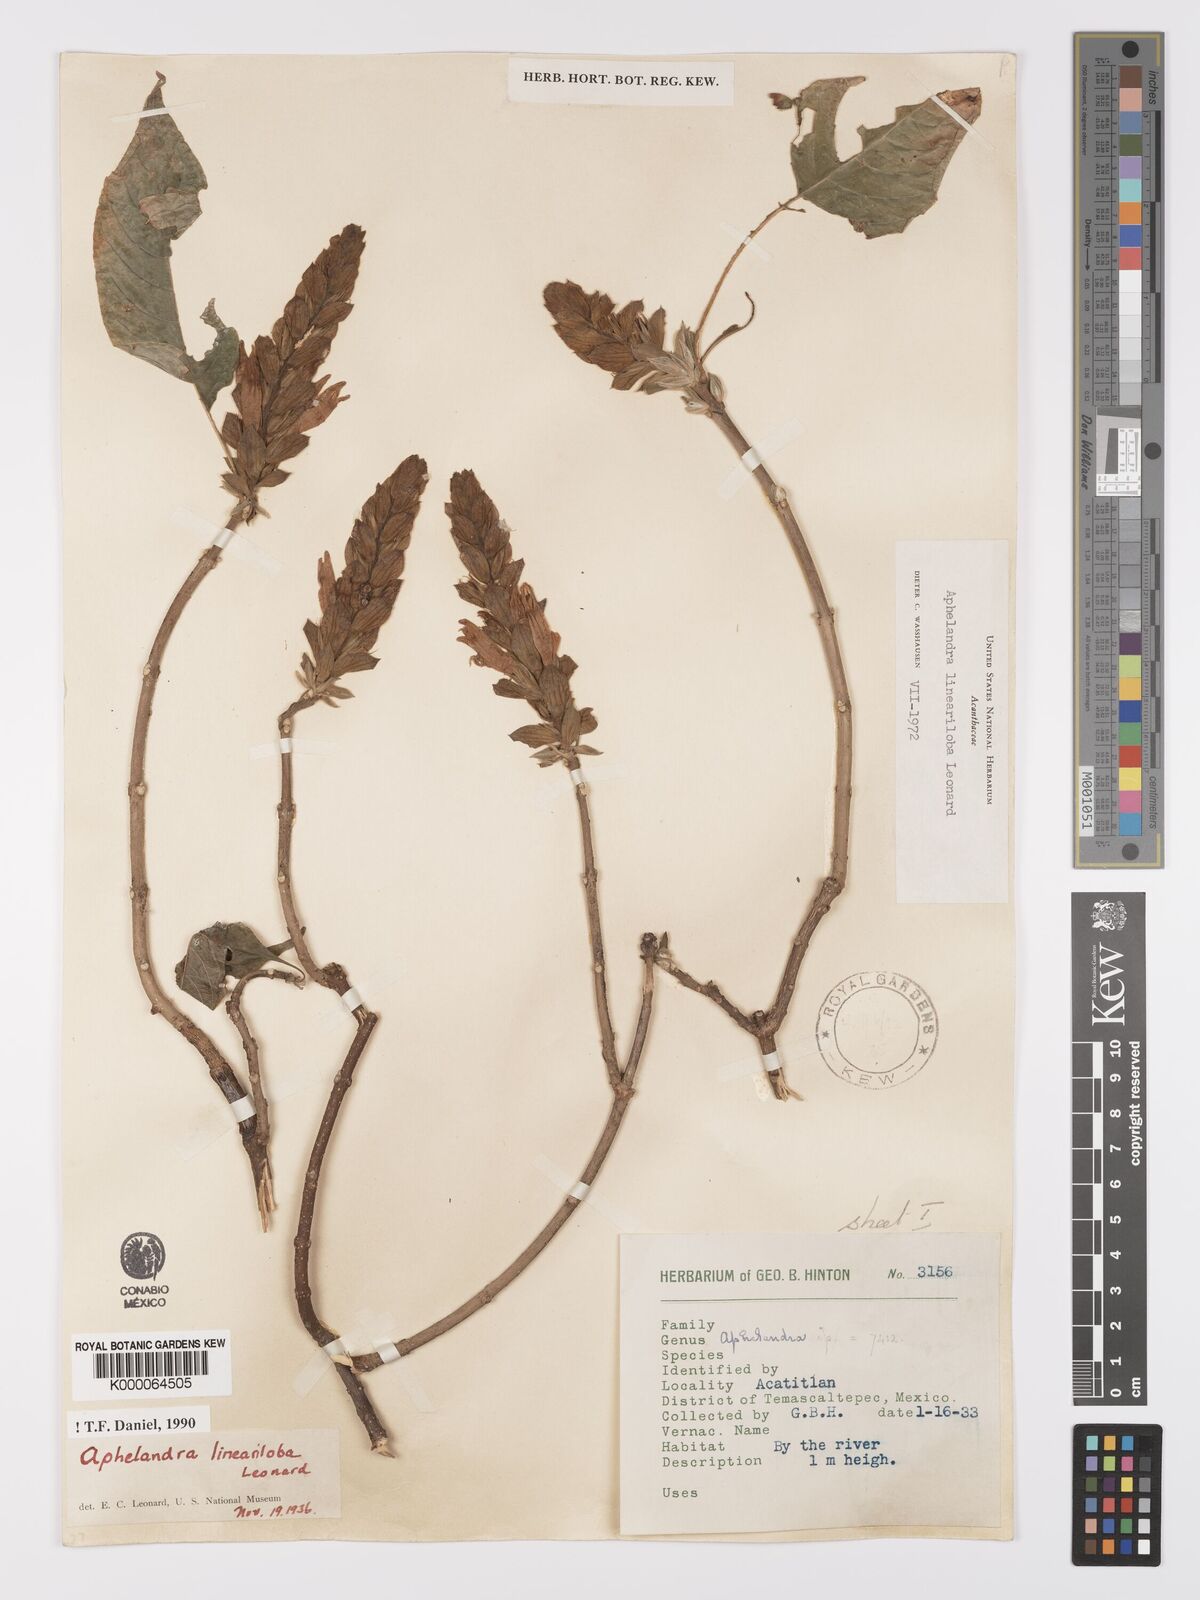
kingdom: Plantae
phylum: Tracheophyta
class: Magnoliopsida
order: Lamiales
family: Acanthaceae
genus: Aphelandra
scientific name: Aphelandra lineariloba
